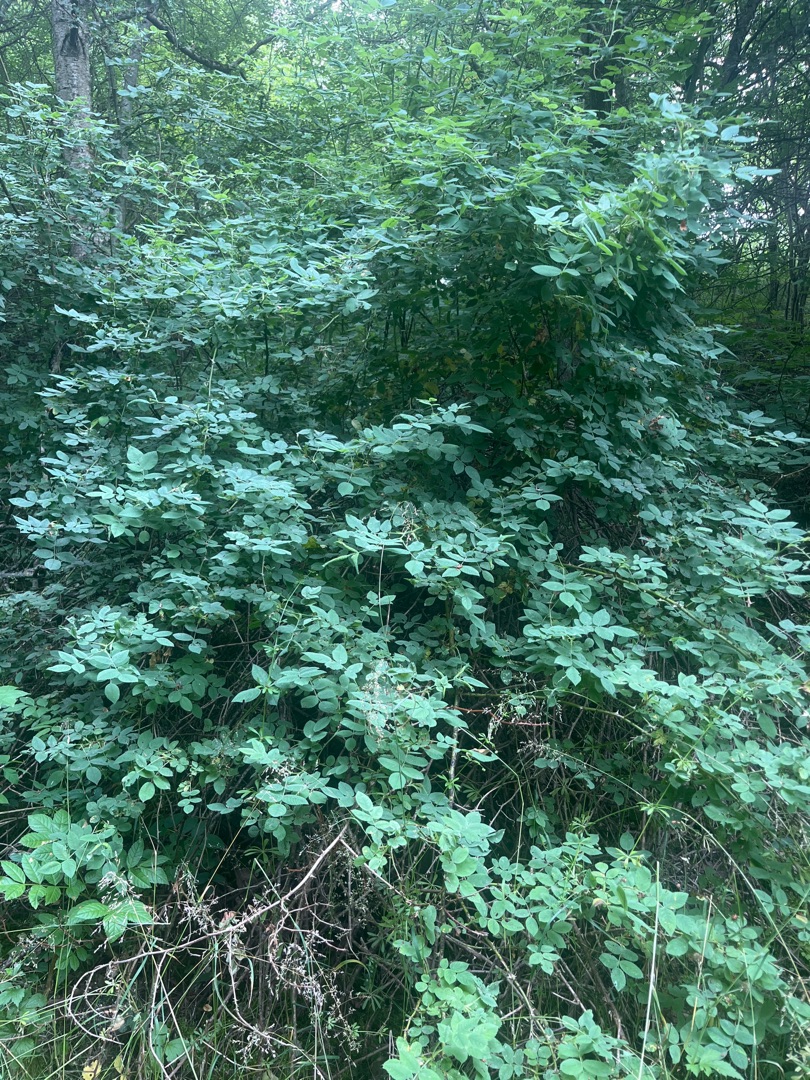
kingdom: Plantae
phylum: Tracheophyta
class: Magnoliopsida
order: Rosales
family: Rosaceae
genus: Rosa
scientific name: Rosa
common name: Roseslægten
